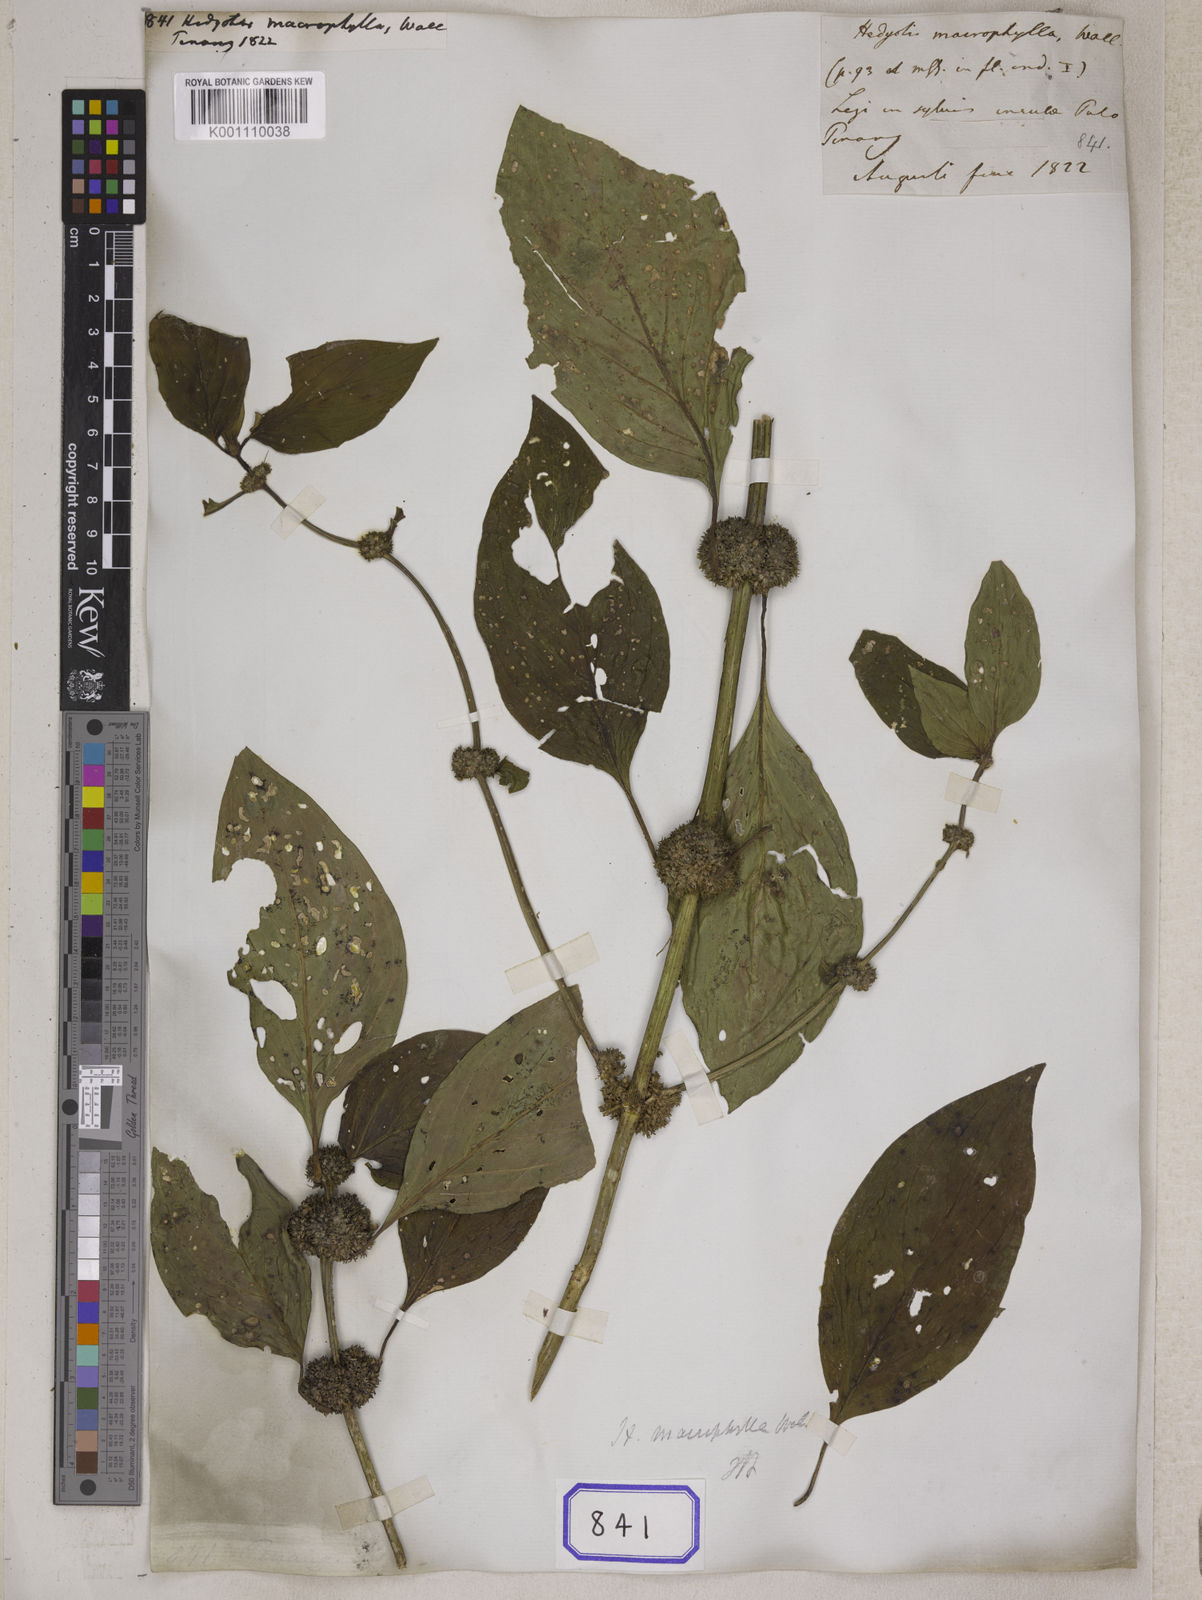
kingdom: Plantae
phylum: Tracheophyta
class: Magnoliopsida
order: Gentianales
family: Rubiaceae
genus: Hedyotis
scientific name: Hedyotis
